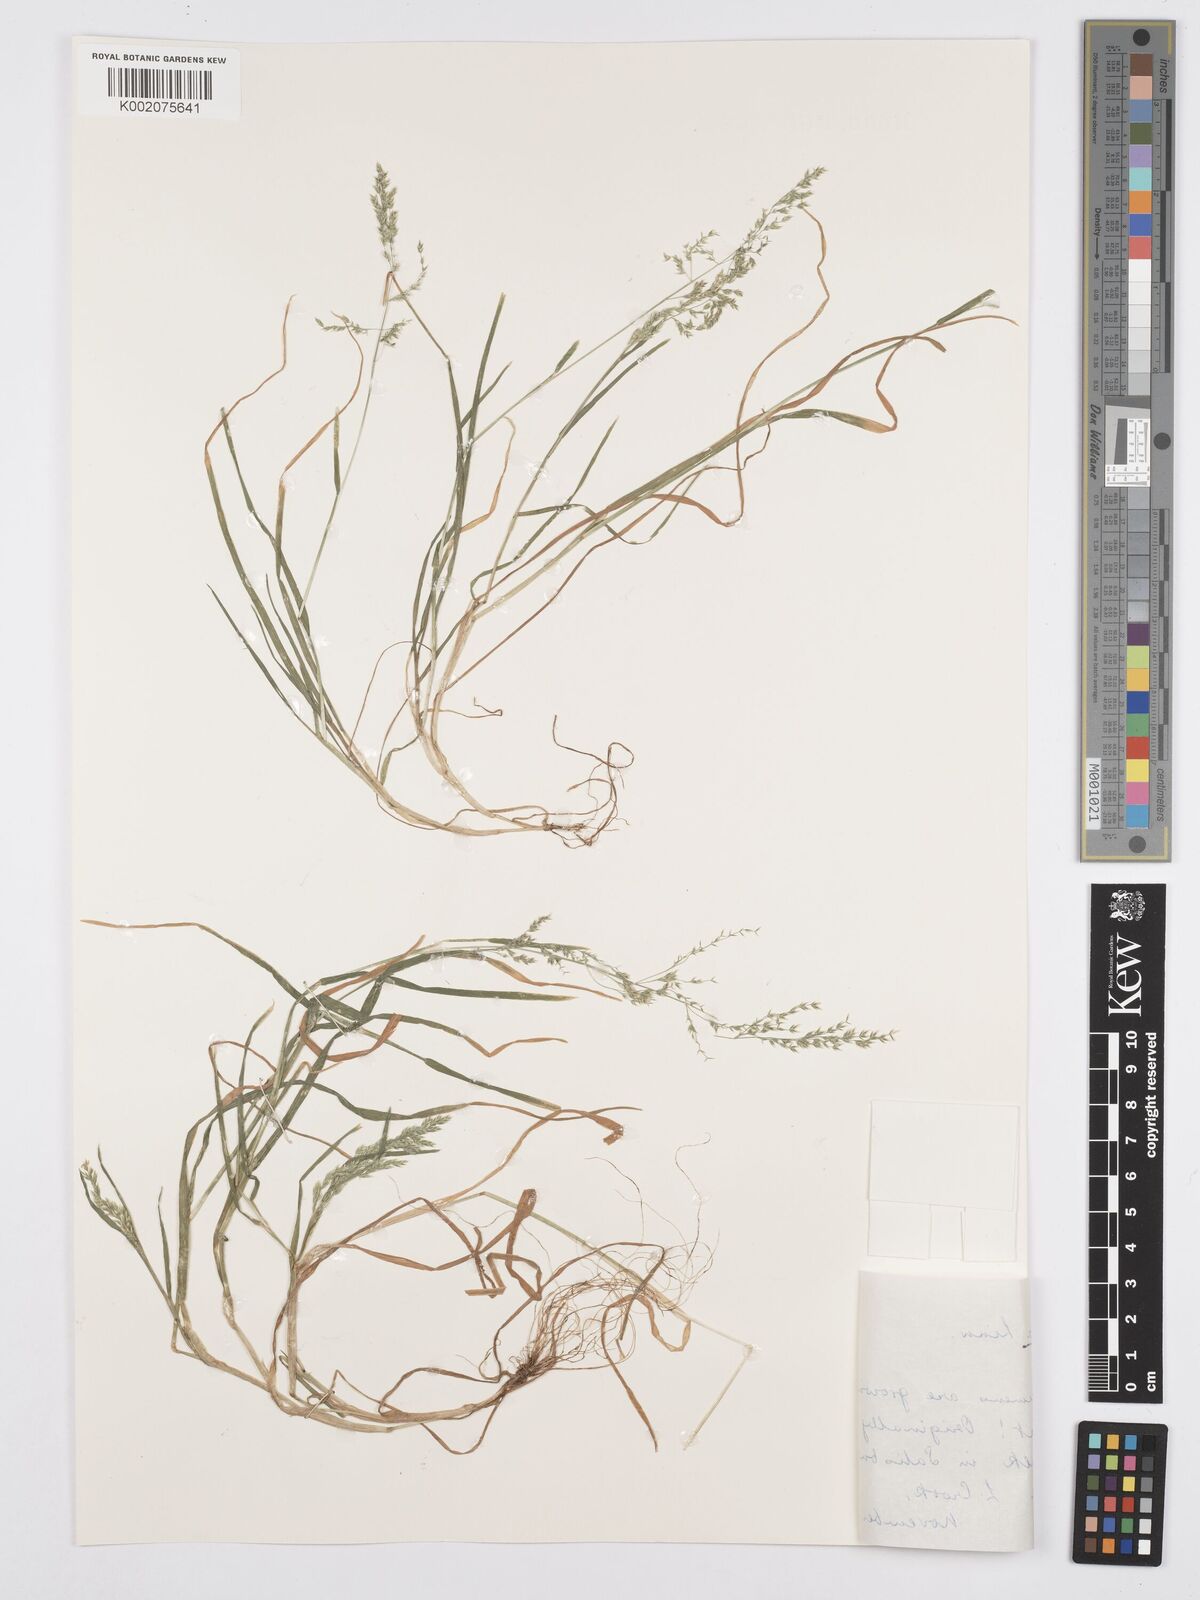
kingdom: Plantae
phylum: Tracheophyta
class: Liliopsida
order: Poales
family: Poaceae
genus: Poa
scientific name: Poa annua
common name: Annual bluegrass
